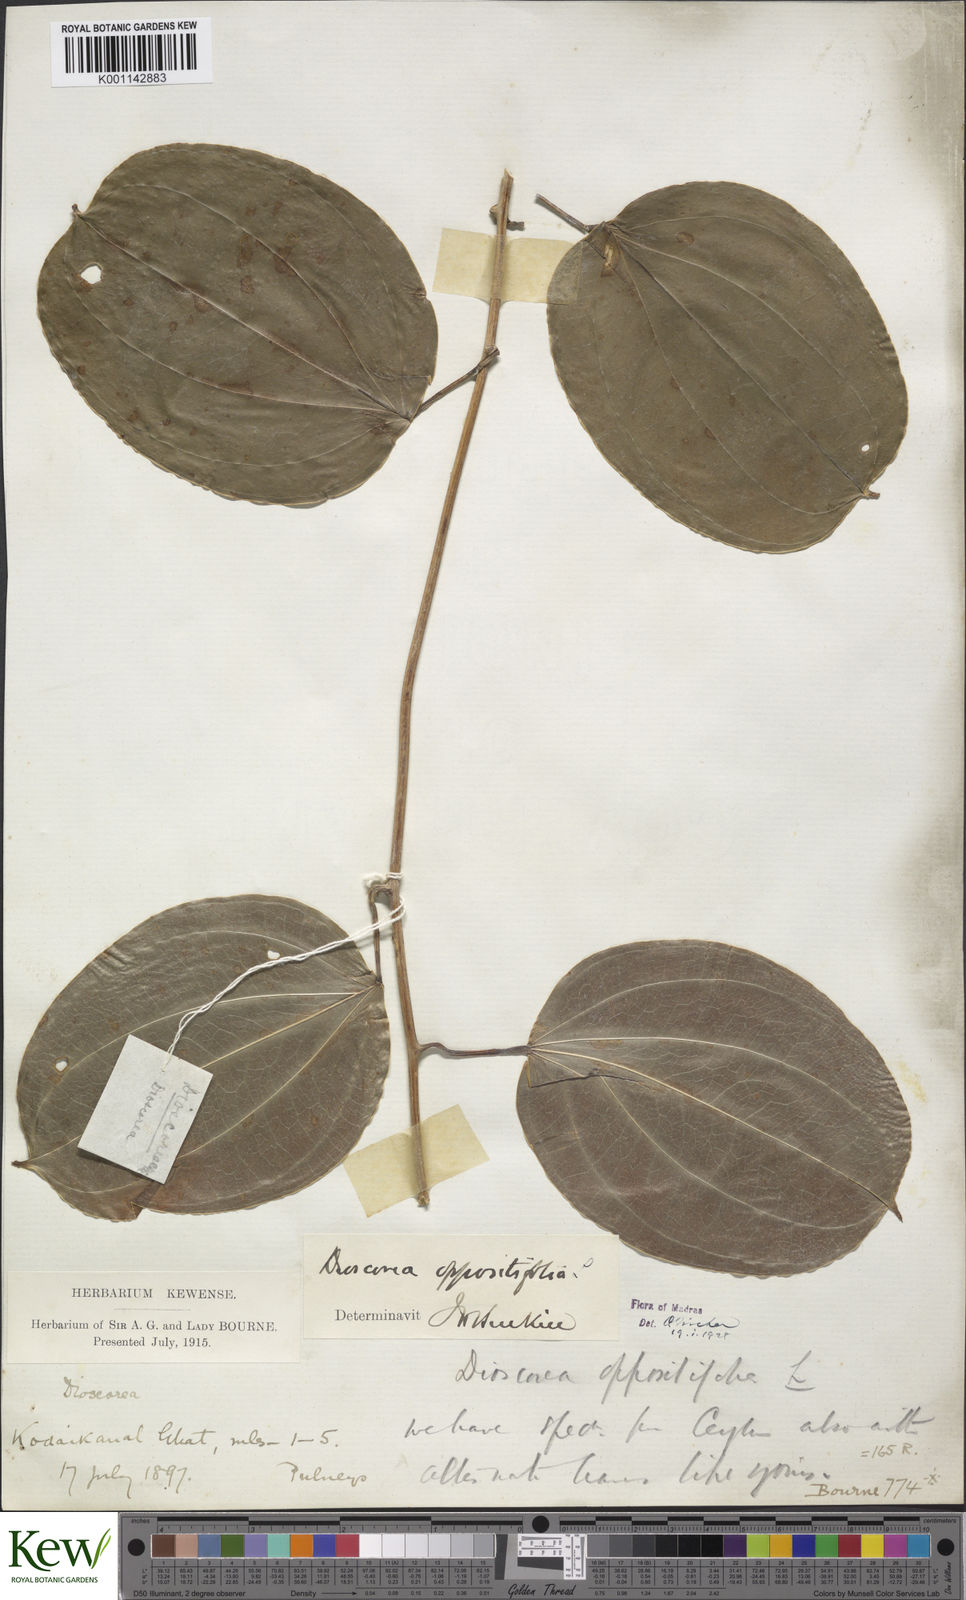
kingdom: Plantae
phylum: Tracheophyta
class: Liliopsida
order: Dioscoreales
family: Dioscoreaceae
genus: Dioscorea
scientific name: Dioscorea oppositifolia
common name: Chinese yam
